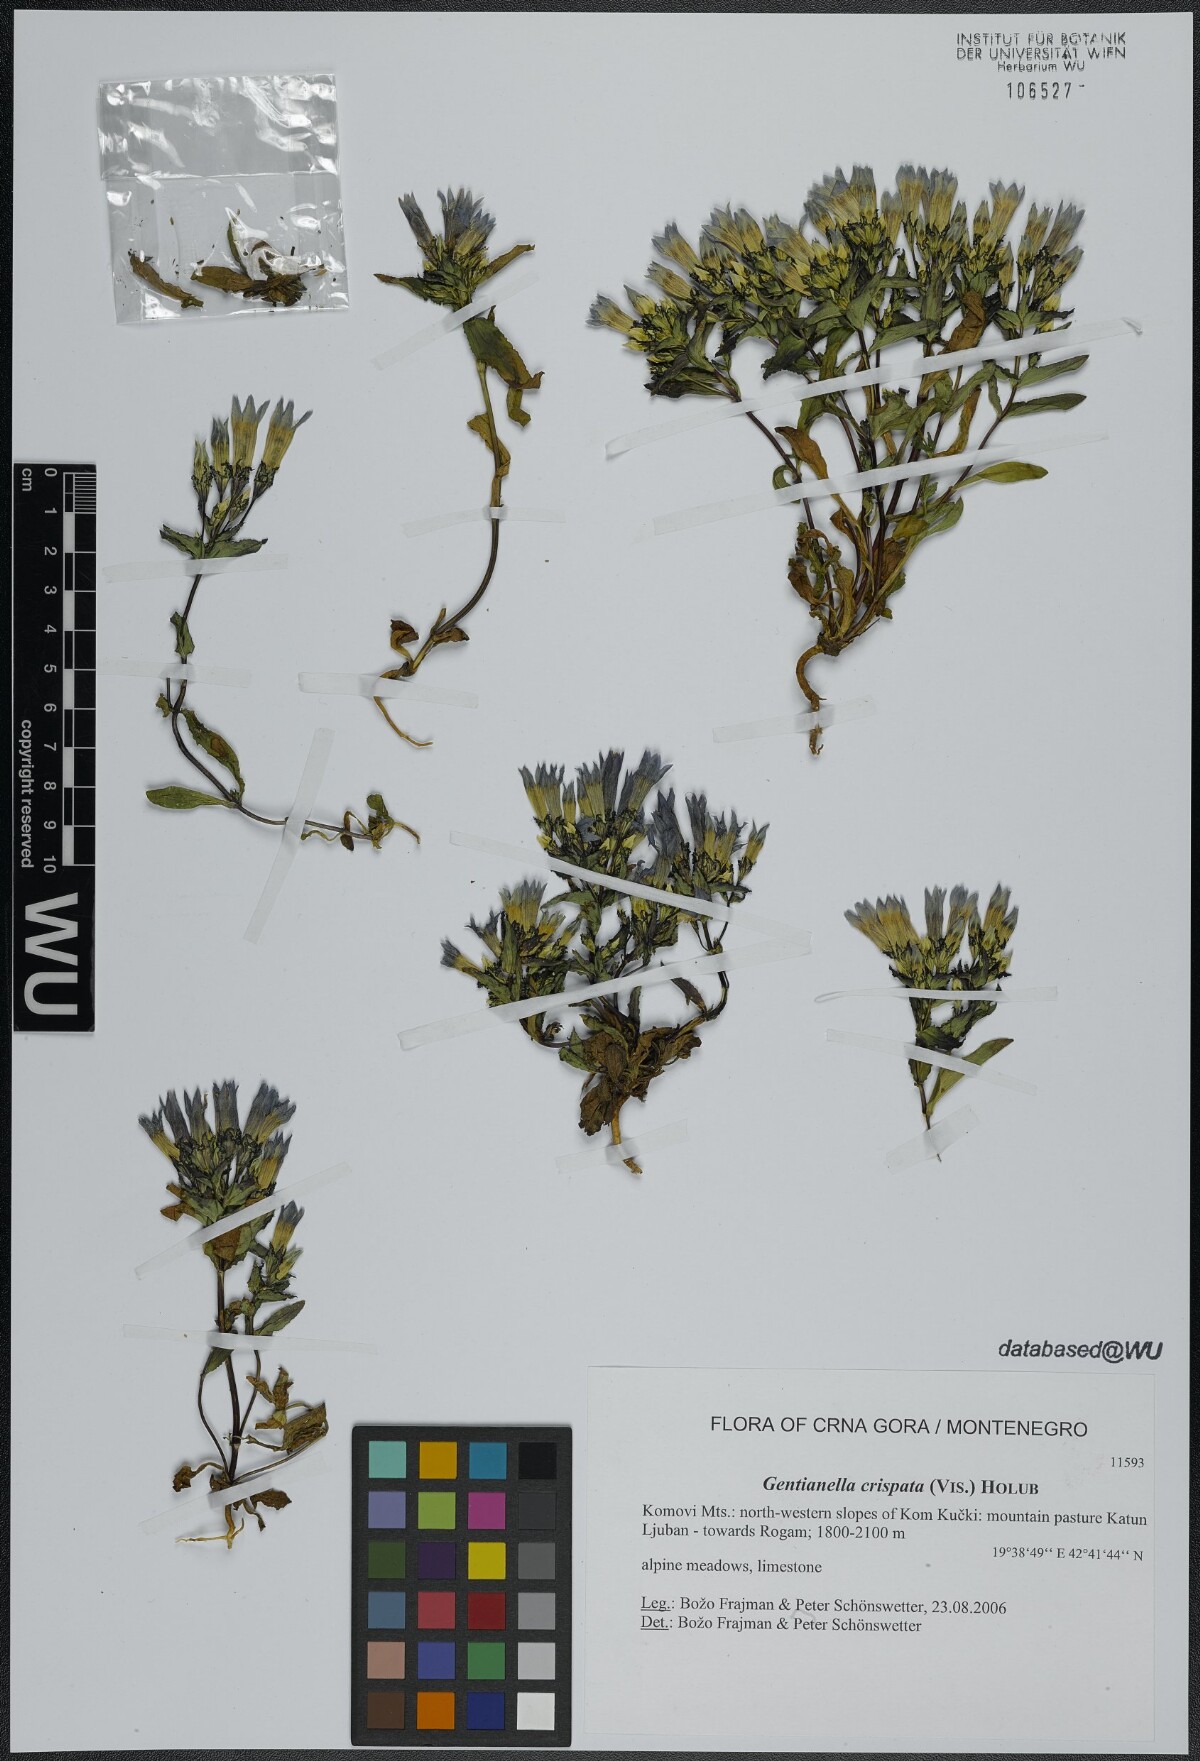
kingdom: Plantae
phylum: Tracheophyta
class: Magnoliopsida
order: Gentianales
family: Gentianaceae
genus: Gentianella
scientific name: Gentianella crispata
